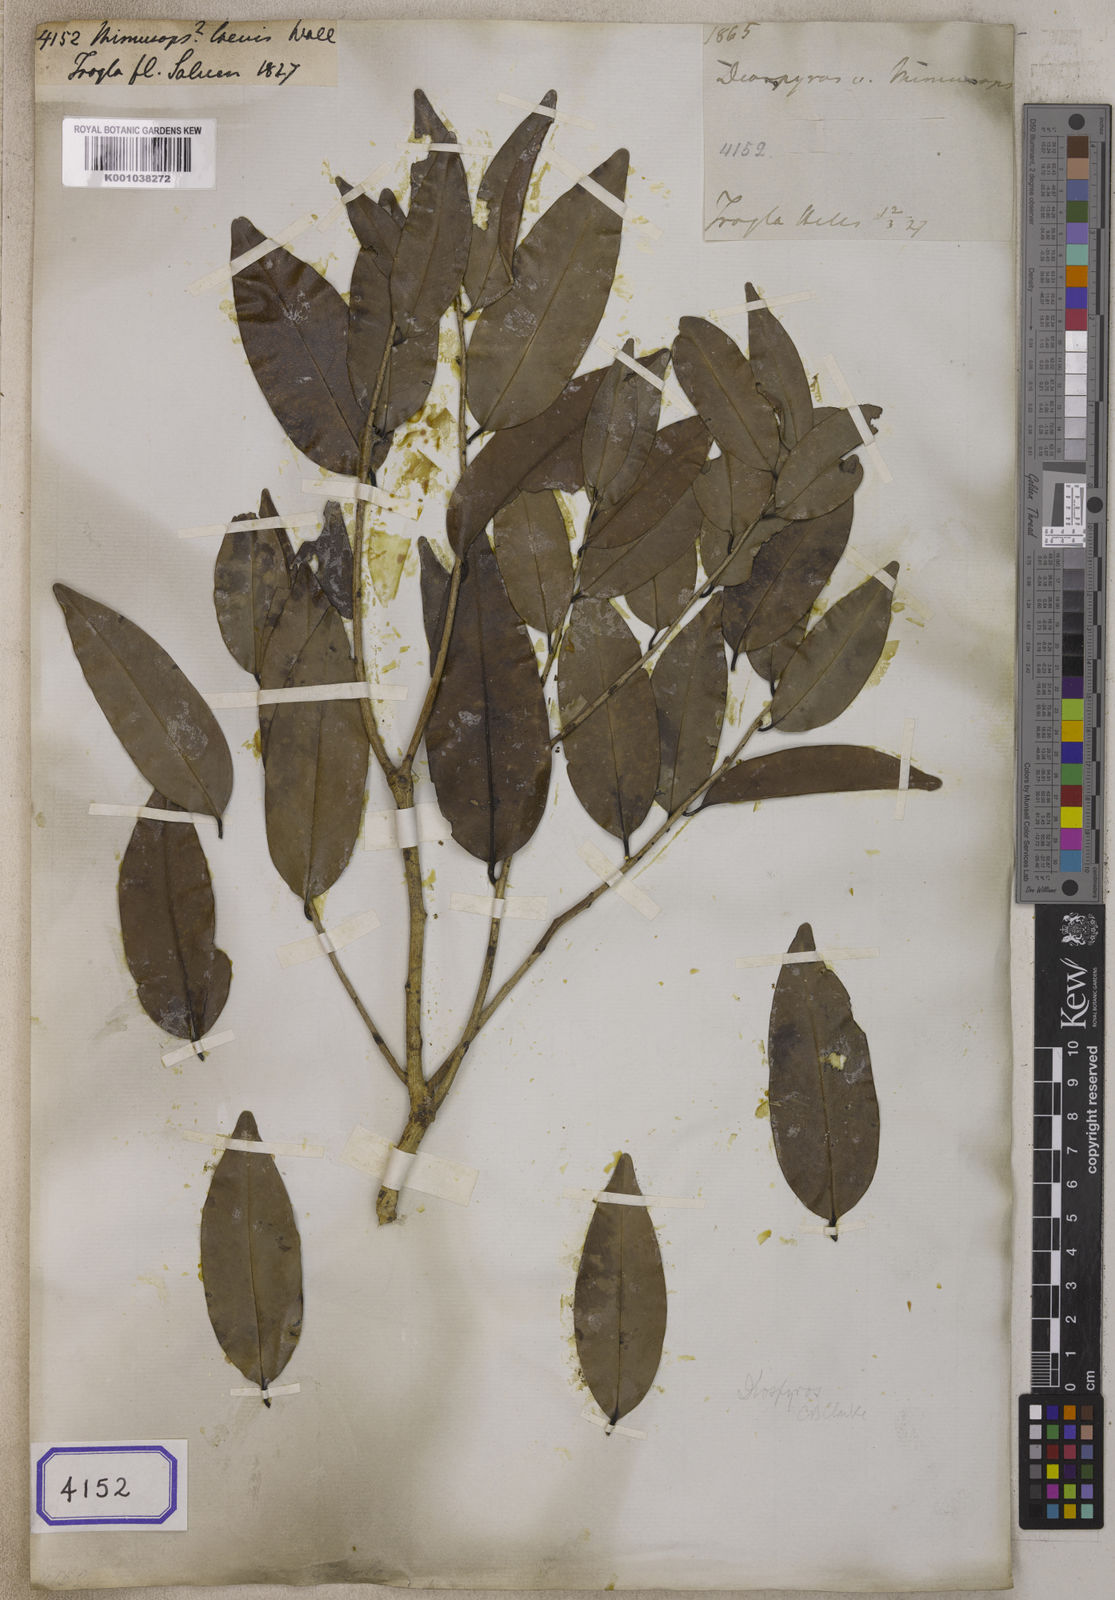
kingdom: Plantae
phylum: Tracheophyta
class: Magnoliopsida
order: Ericales
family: Sapotaceae
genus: Mimusops
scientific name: Mimusops
